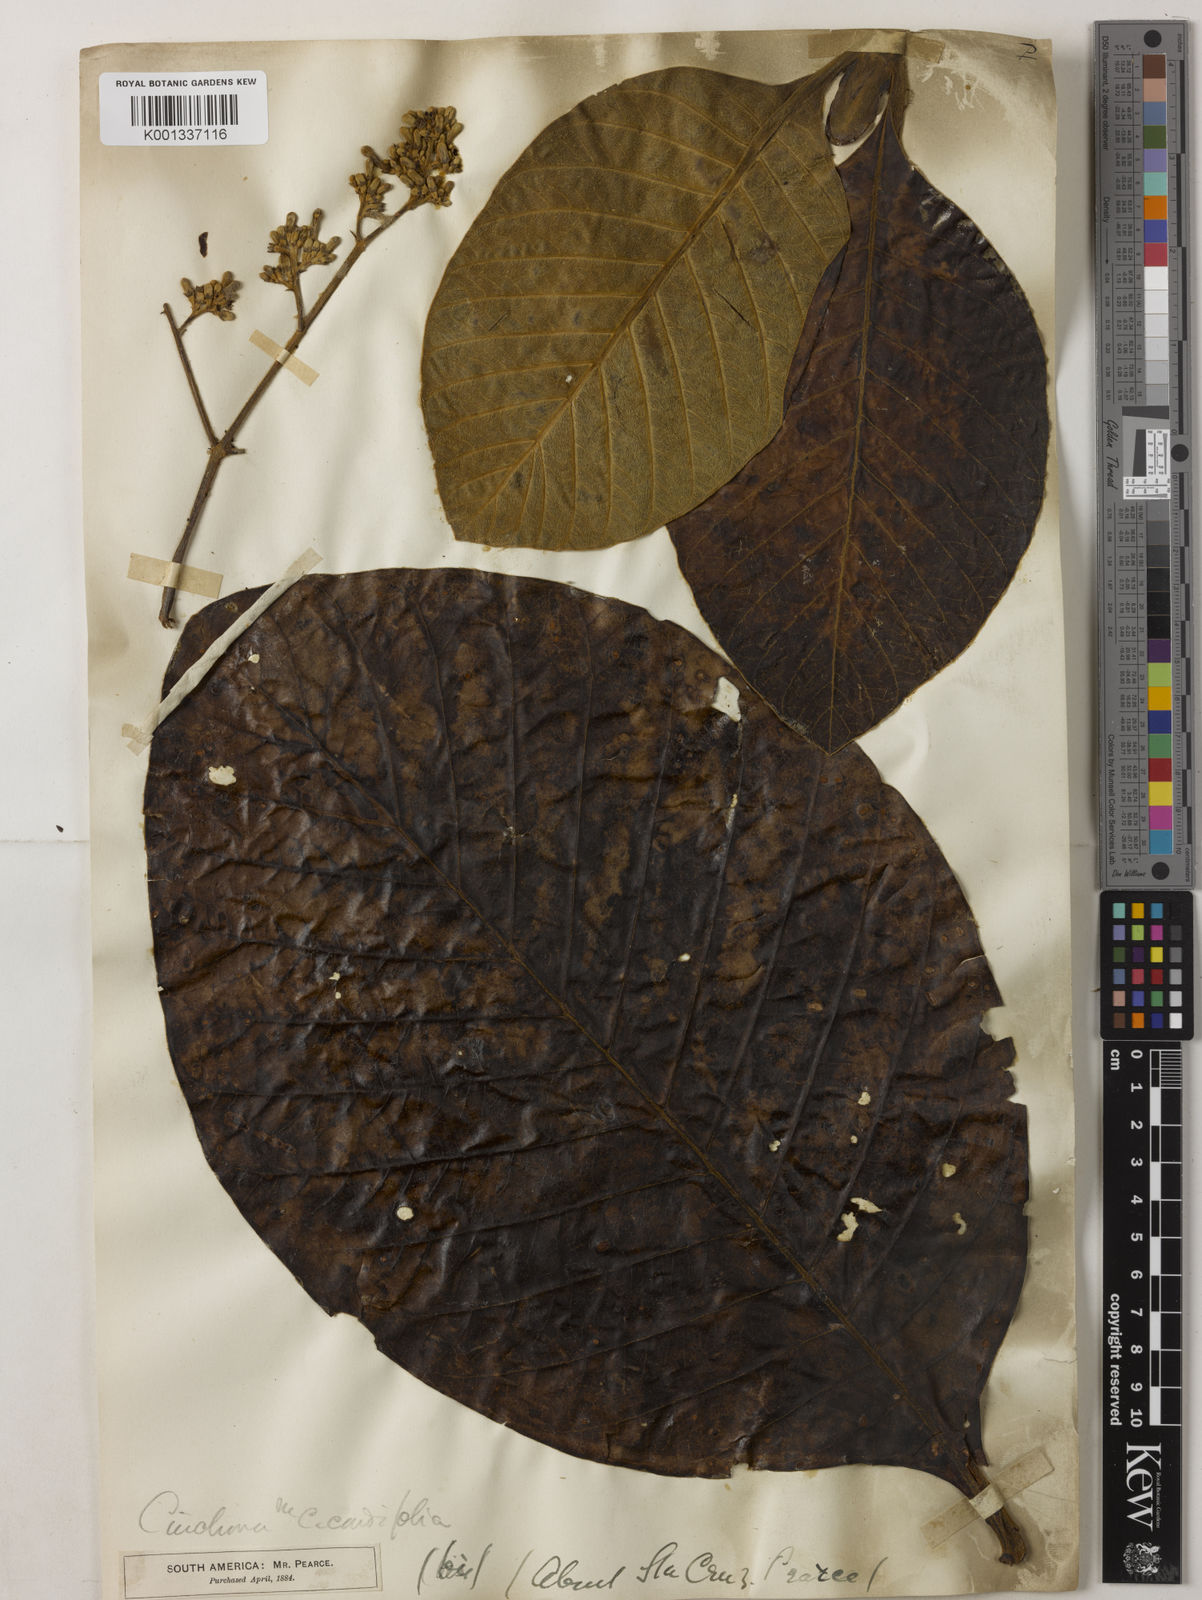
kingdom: Plantae
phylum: Tracheophyta
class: Magnoliopsida
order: Gentianales
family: Rubiaceae
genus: Cinchona
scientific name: Cinchona pubescens
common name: Quinine
